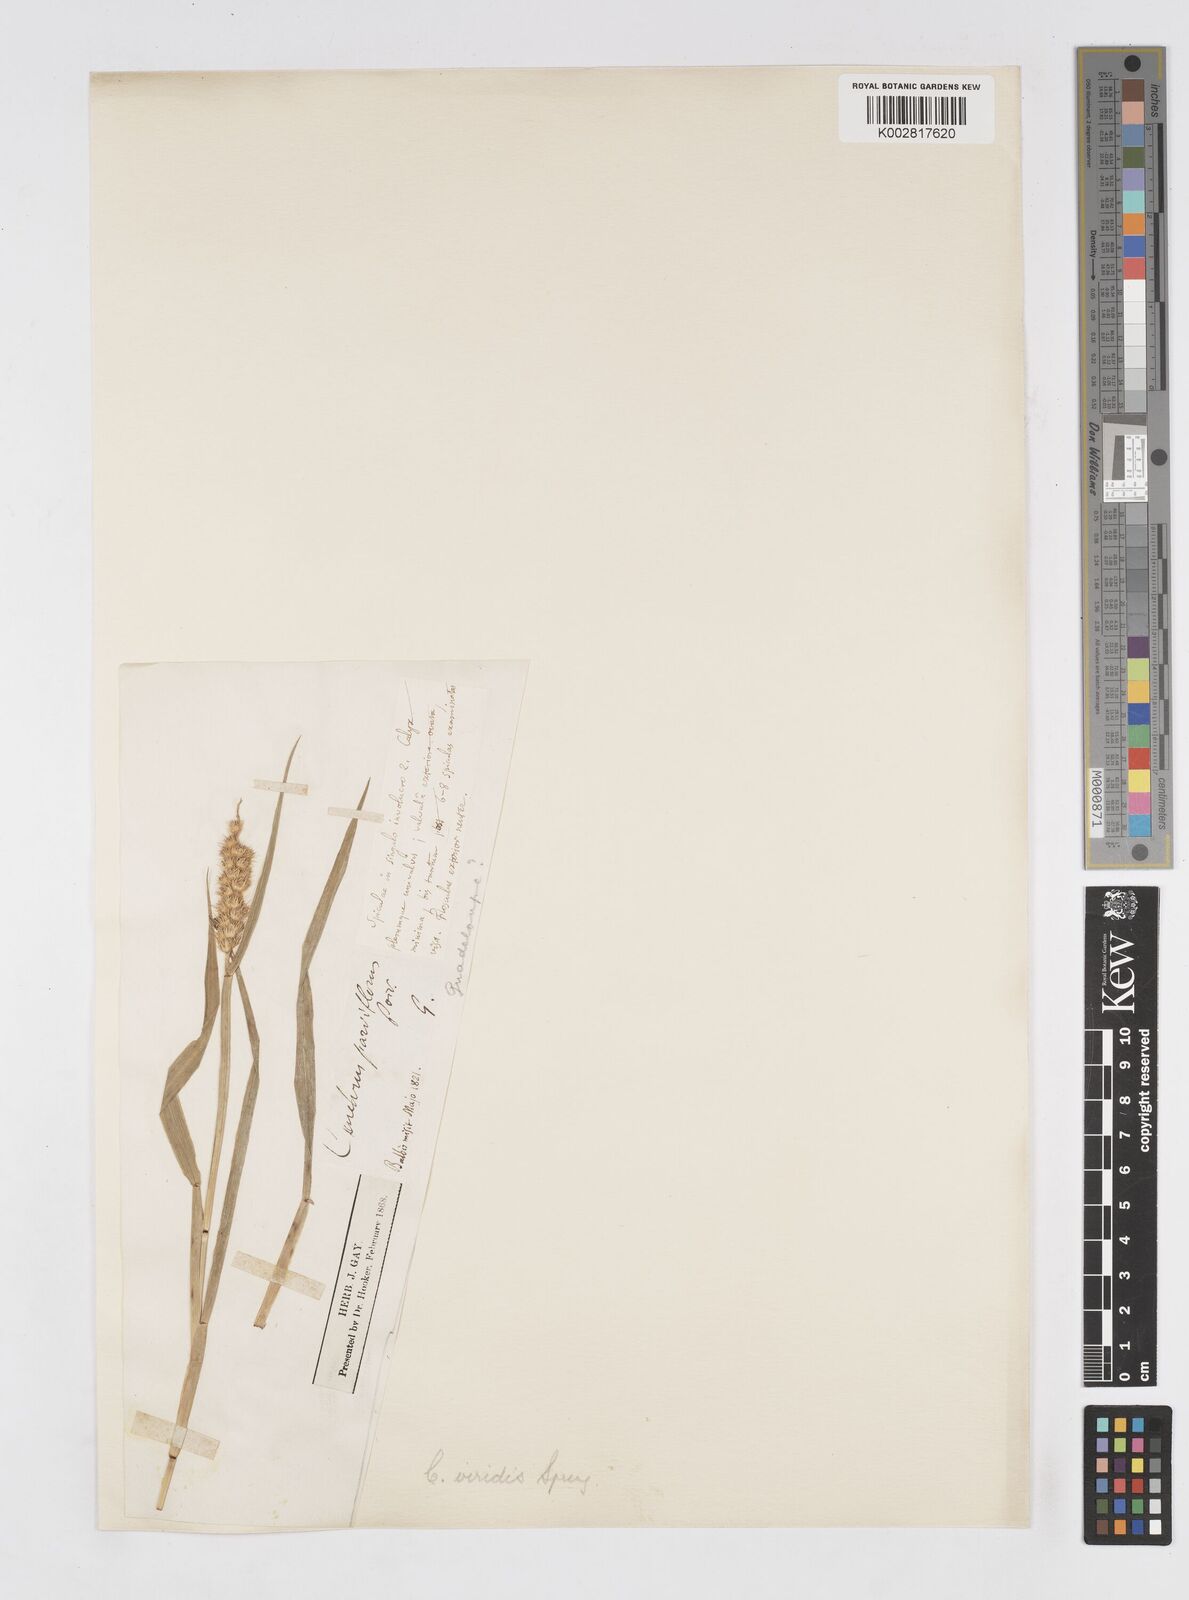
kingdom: Plantae
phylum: Tracheophyta
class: Liliopsida
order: Poales
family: Poaceae
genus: Cenchrus
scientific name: Cenchrus brownii
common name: Slim-bristle sandbur
